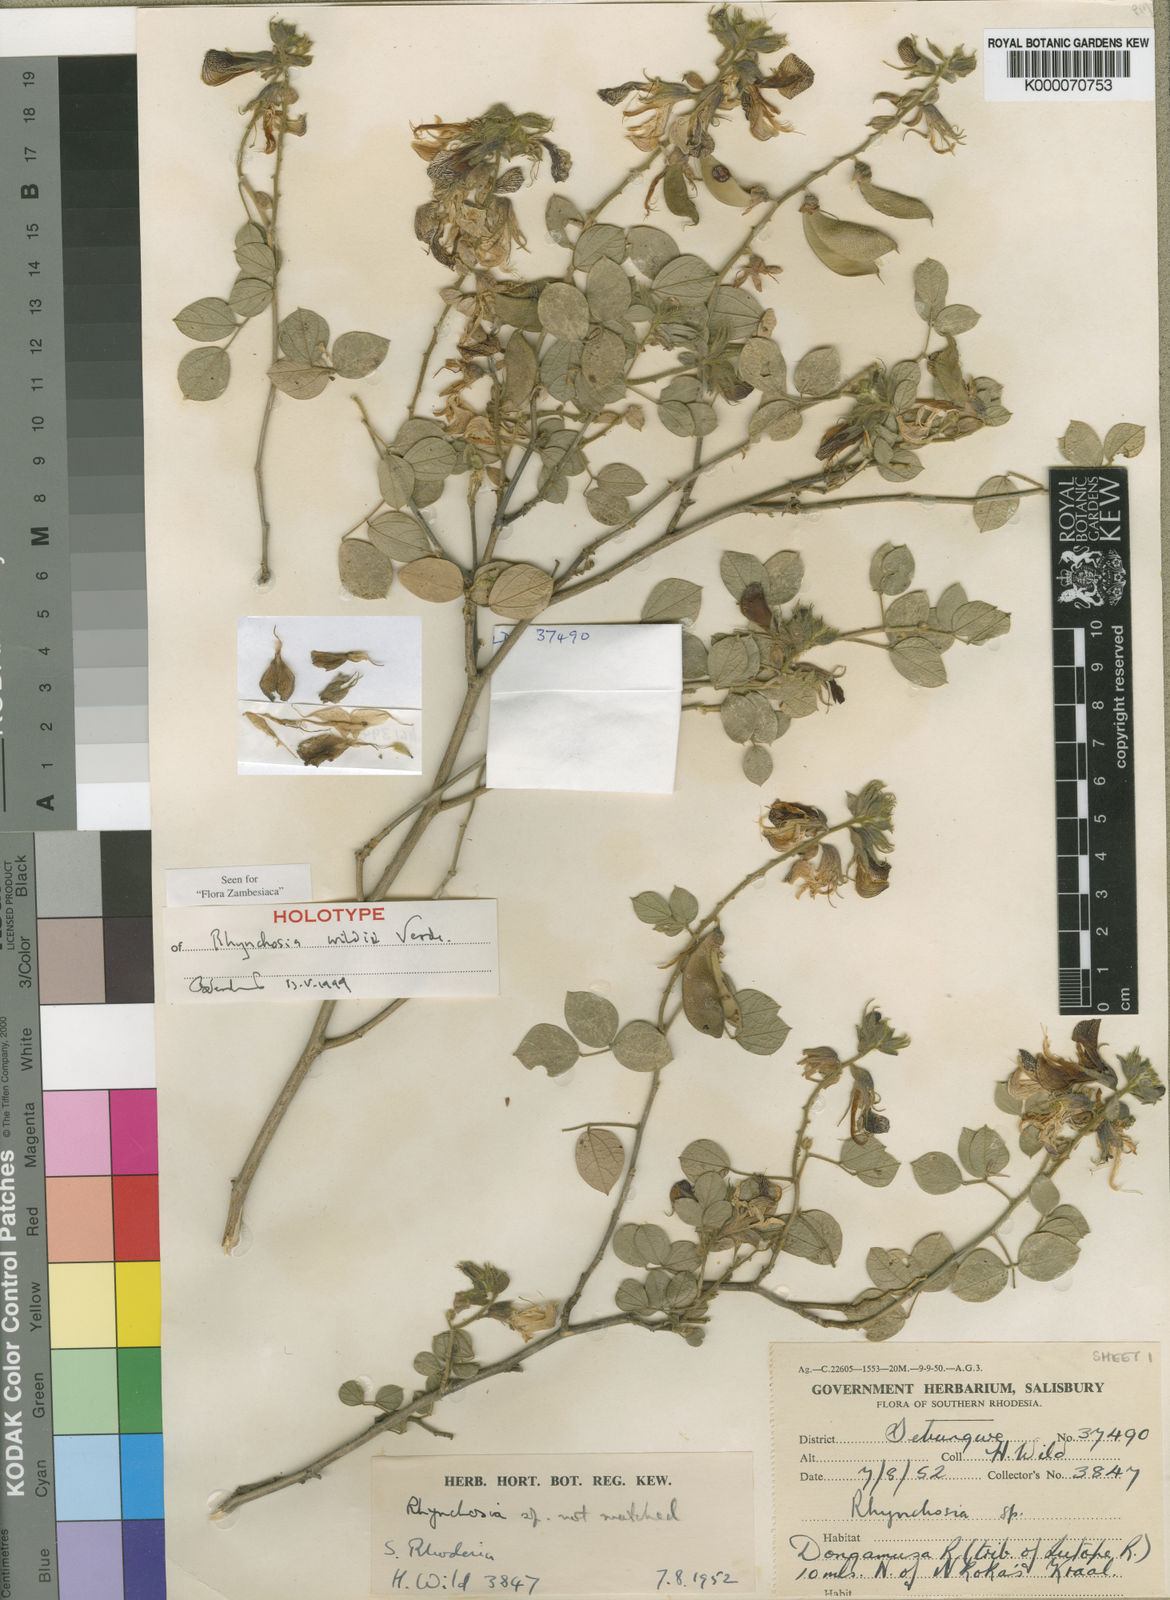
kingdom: Plantae
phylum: Tracheophyta
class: Magnoliopsida
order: Fabales
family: Fabaceae
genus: Rhynchosia
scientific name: Rhynchosia wildii
